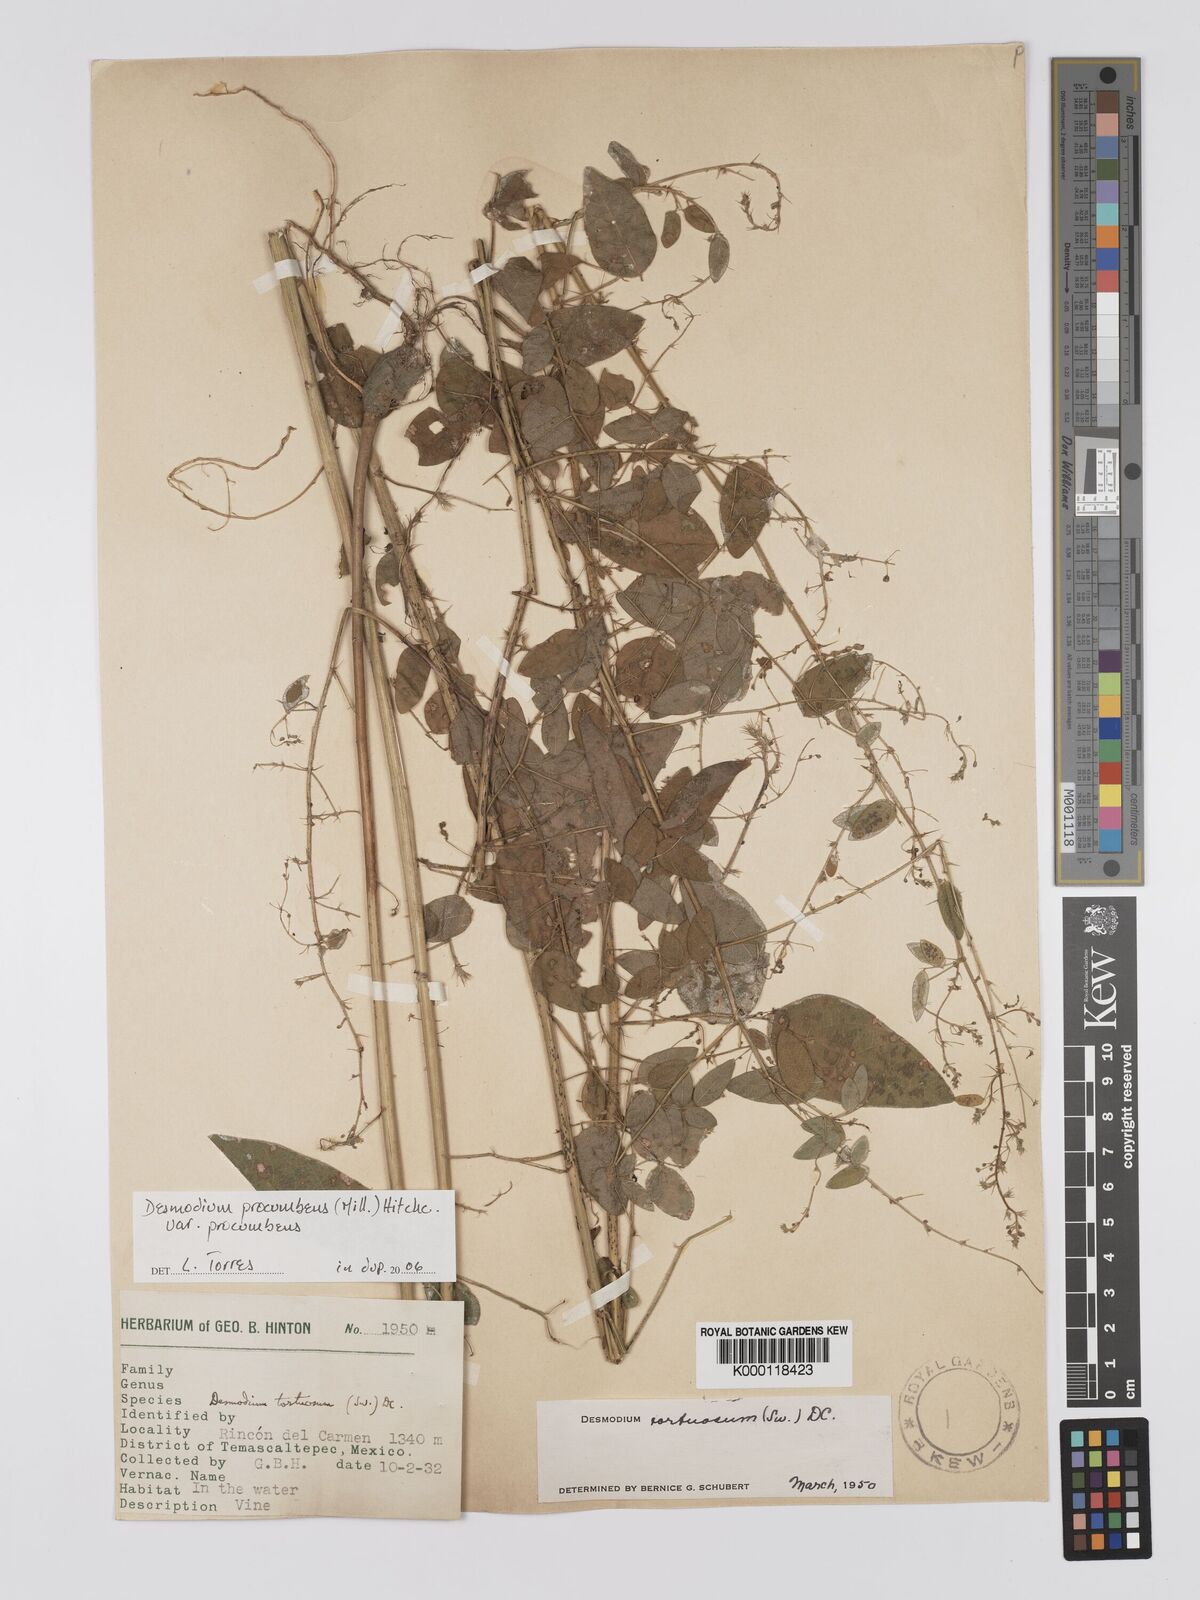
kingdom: Plantae
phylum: Tracheophyta
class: Magnoliopsida
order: Fabales
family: Fabaceae
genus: Desmodium
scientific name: Desmodium procumbens
